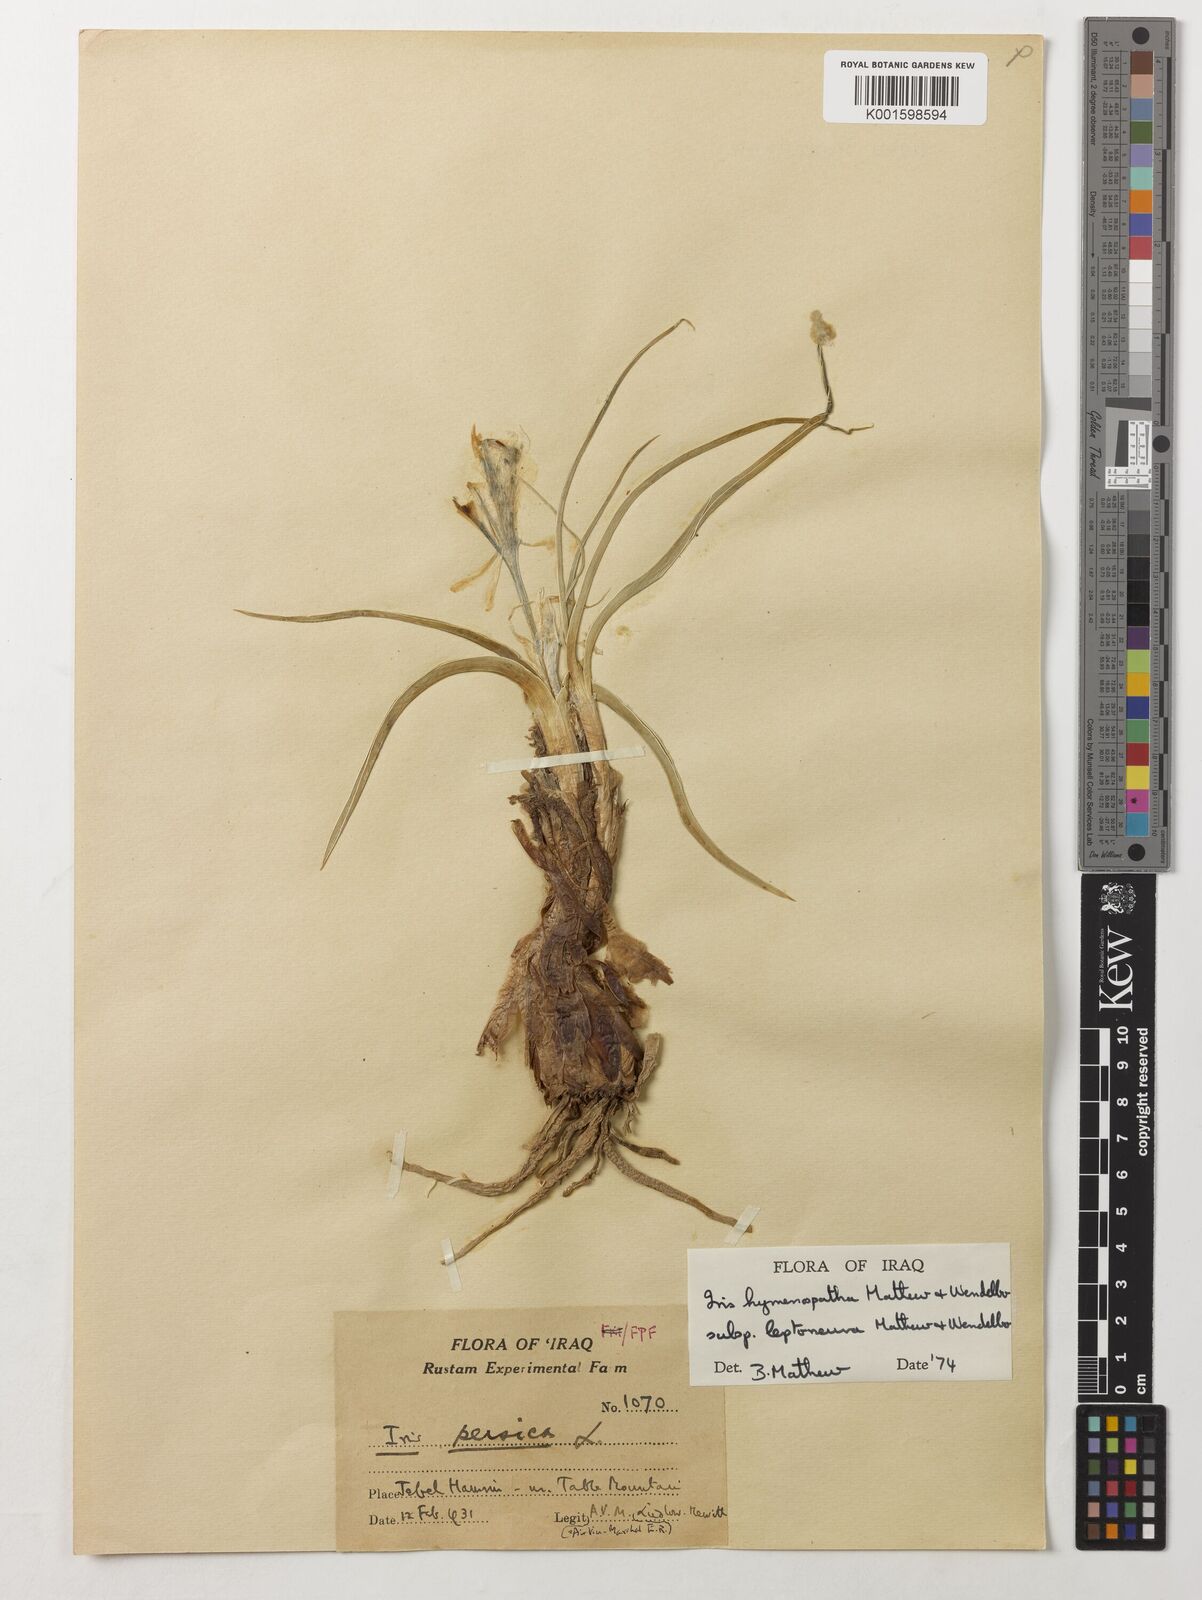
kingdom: Plantae
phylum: Tracheophyta
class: Liliopsida
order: Asparagales
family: Iridaceae
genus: Iris
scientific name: Iris hymenospatha
